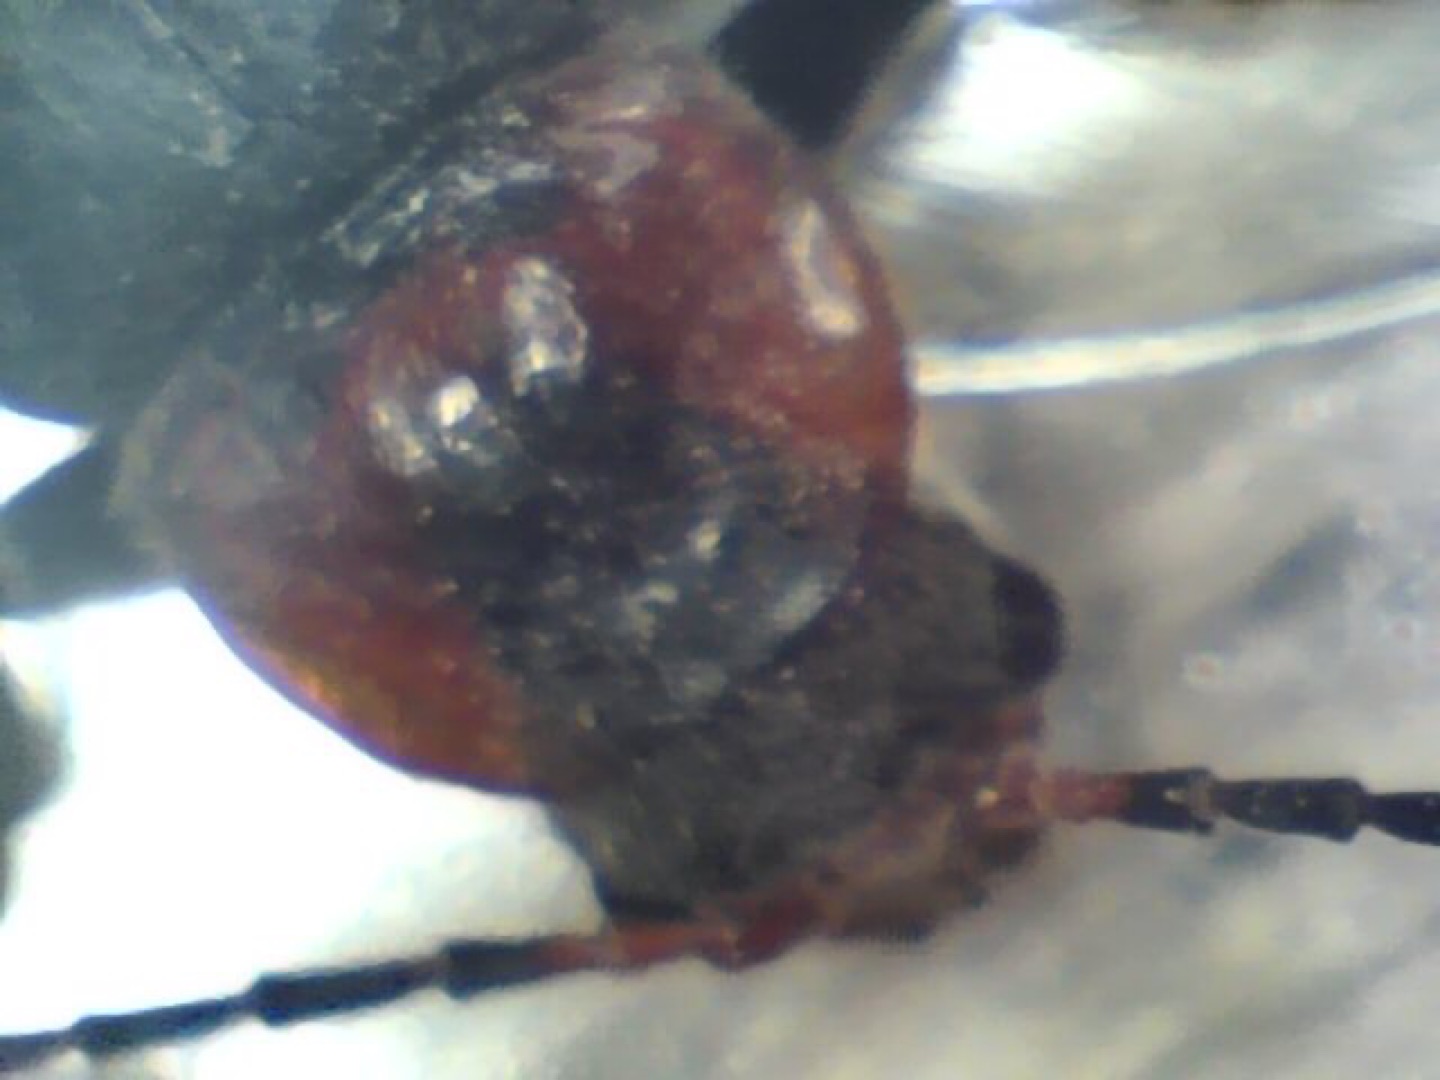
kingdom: Animalia
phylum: Arthropoda
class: Insecta
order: Coleoptera
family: Cantharidae
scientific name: Cantharidae
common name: Blødvinger
